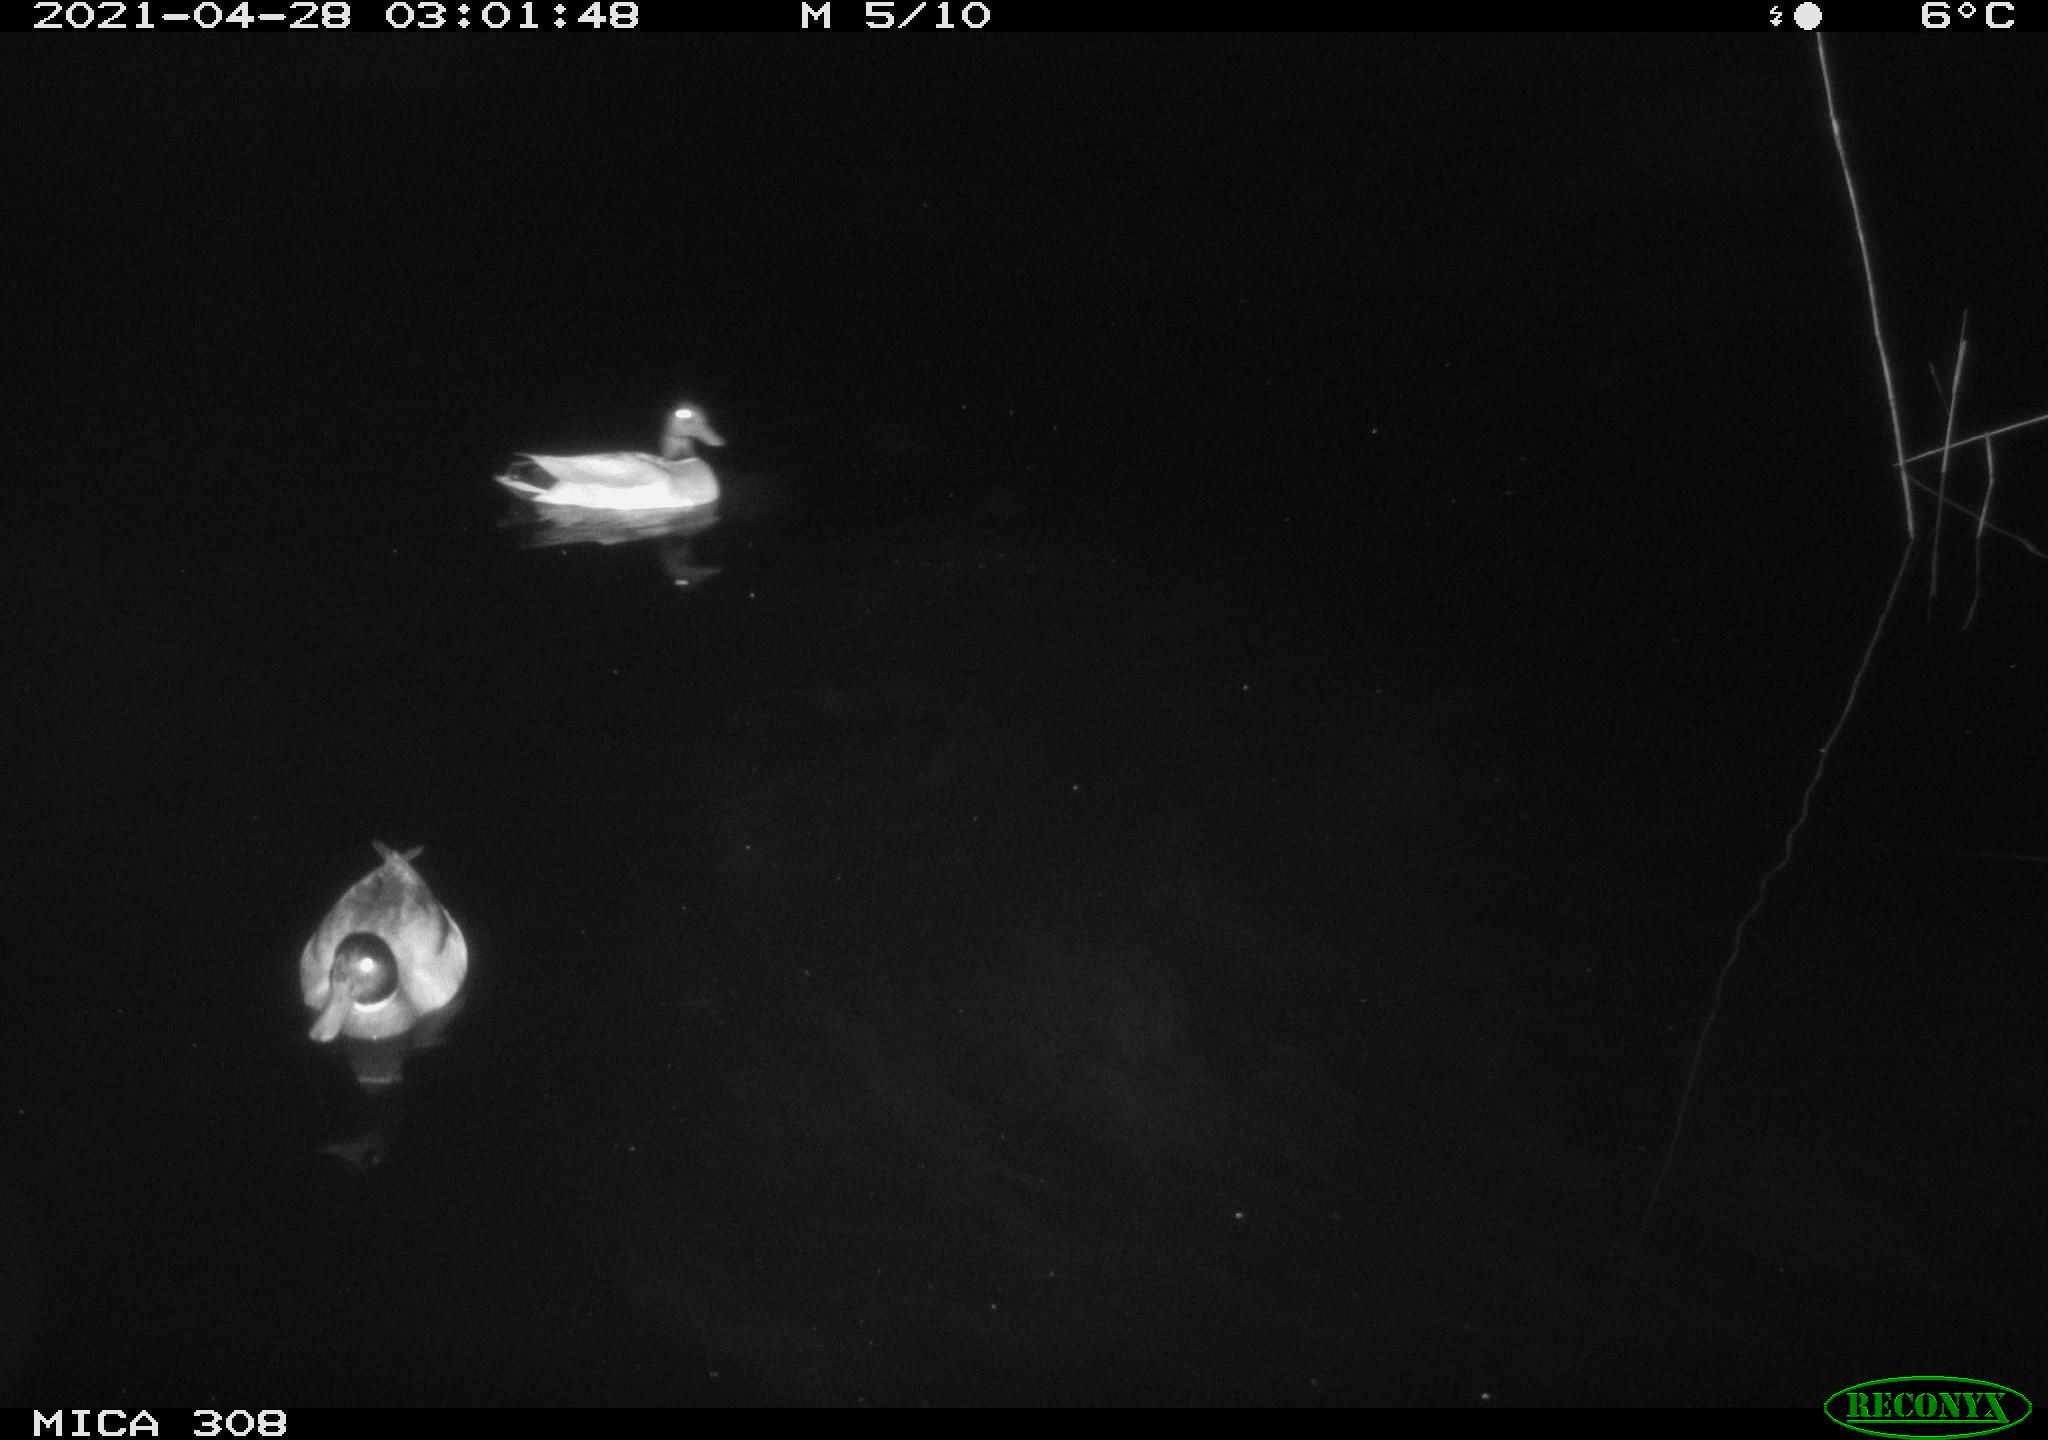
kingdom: Animalia
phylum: Chordata
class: Aves
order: Anseriformes
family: Anatidae
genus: Anas
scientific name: Anas platyrhynchos
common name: Mallard
